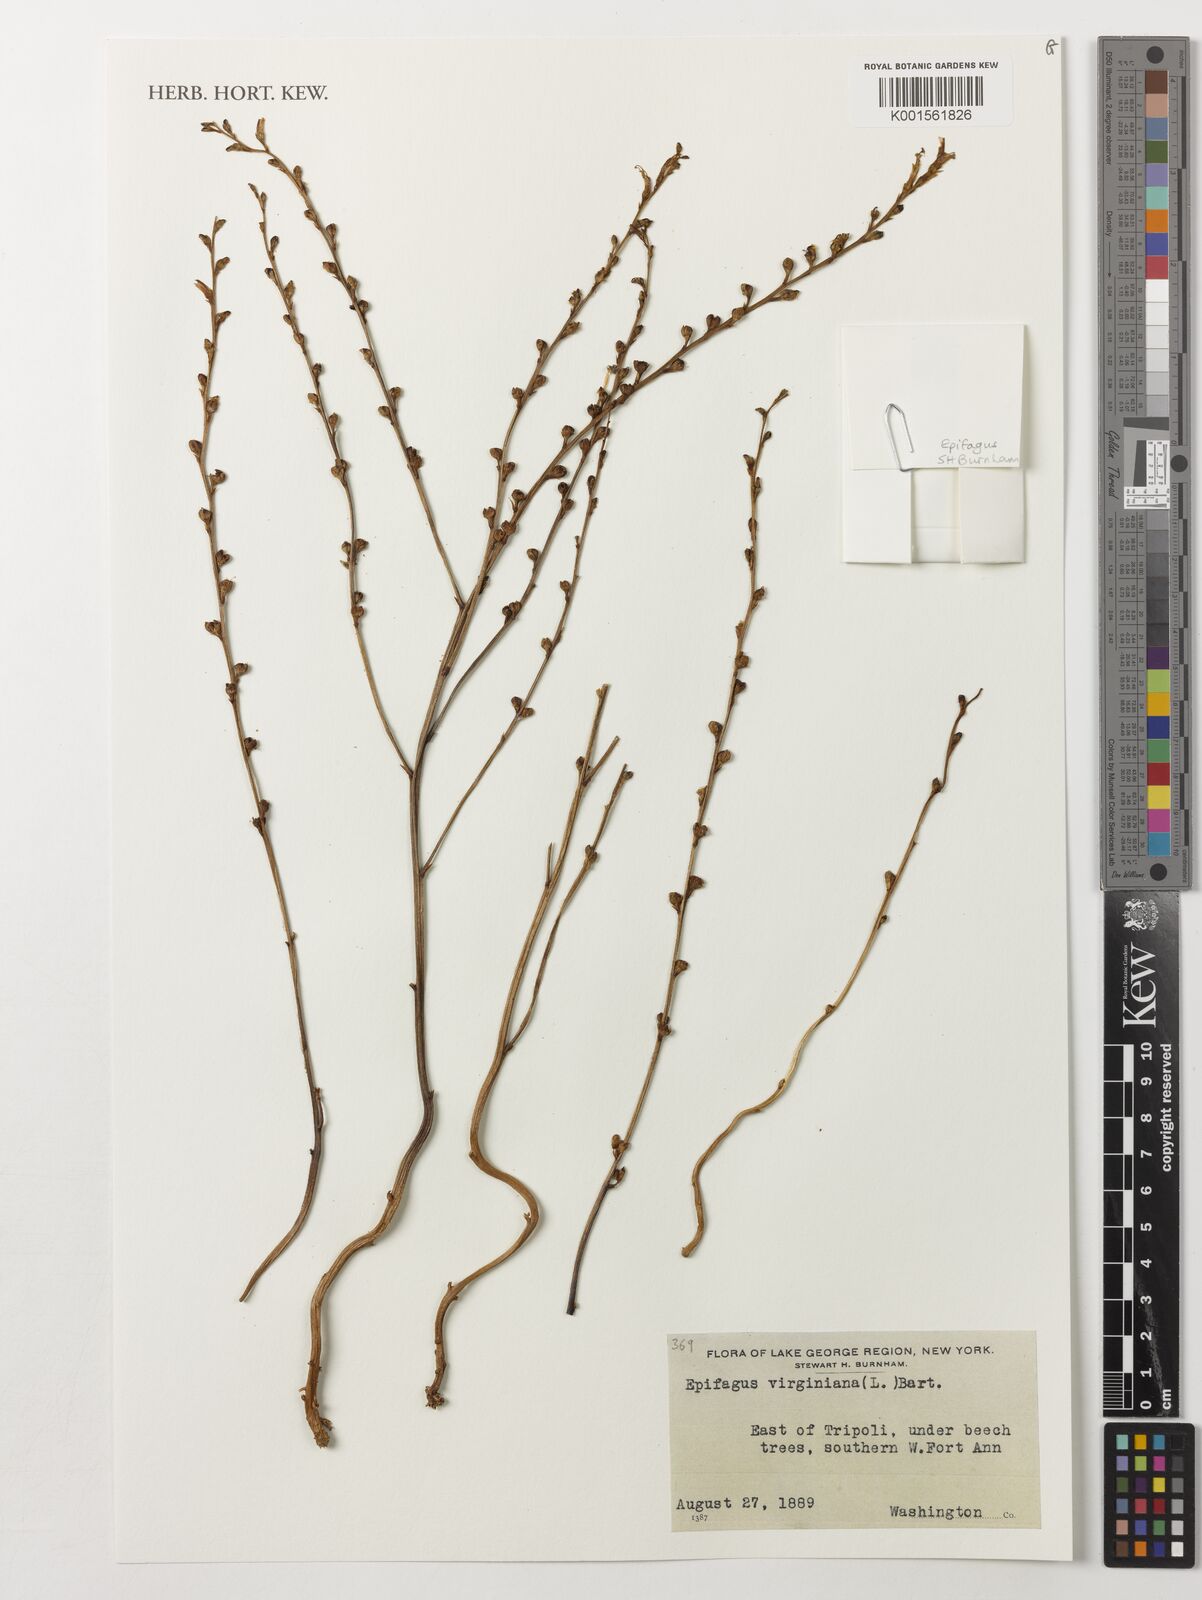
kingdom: Plantae
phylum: Tracheophyta
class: Magnoliopsida
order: Lamiales
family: Orobanchaceae
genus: Epifagus
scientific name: Epifagus virginiana
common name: Beechdrops
